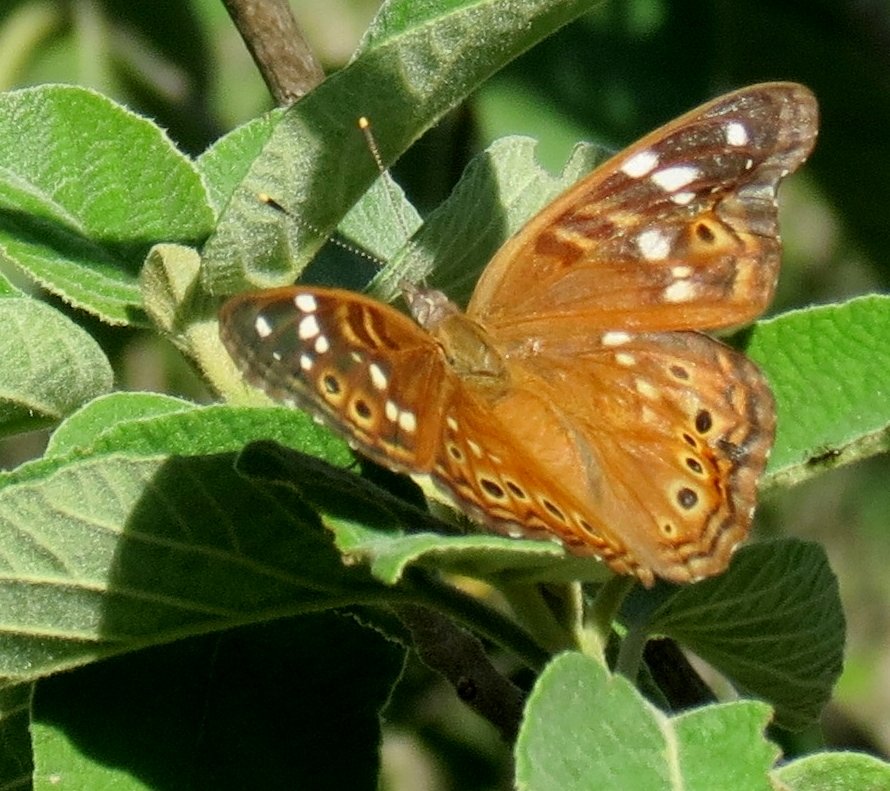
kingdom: Animalia
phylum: Arthropoda
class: Insecta
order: Lepidoptera
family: Nymphalidae
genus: Asterocampa
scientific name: Asterocampa leilia
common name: Empress Leilia
